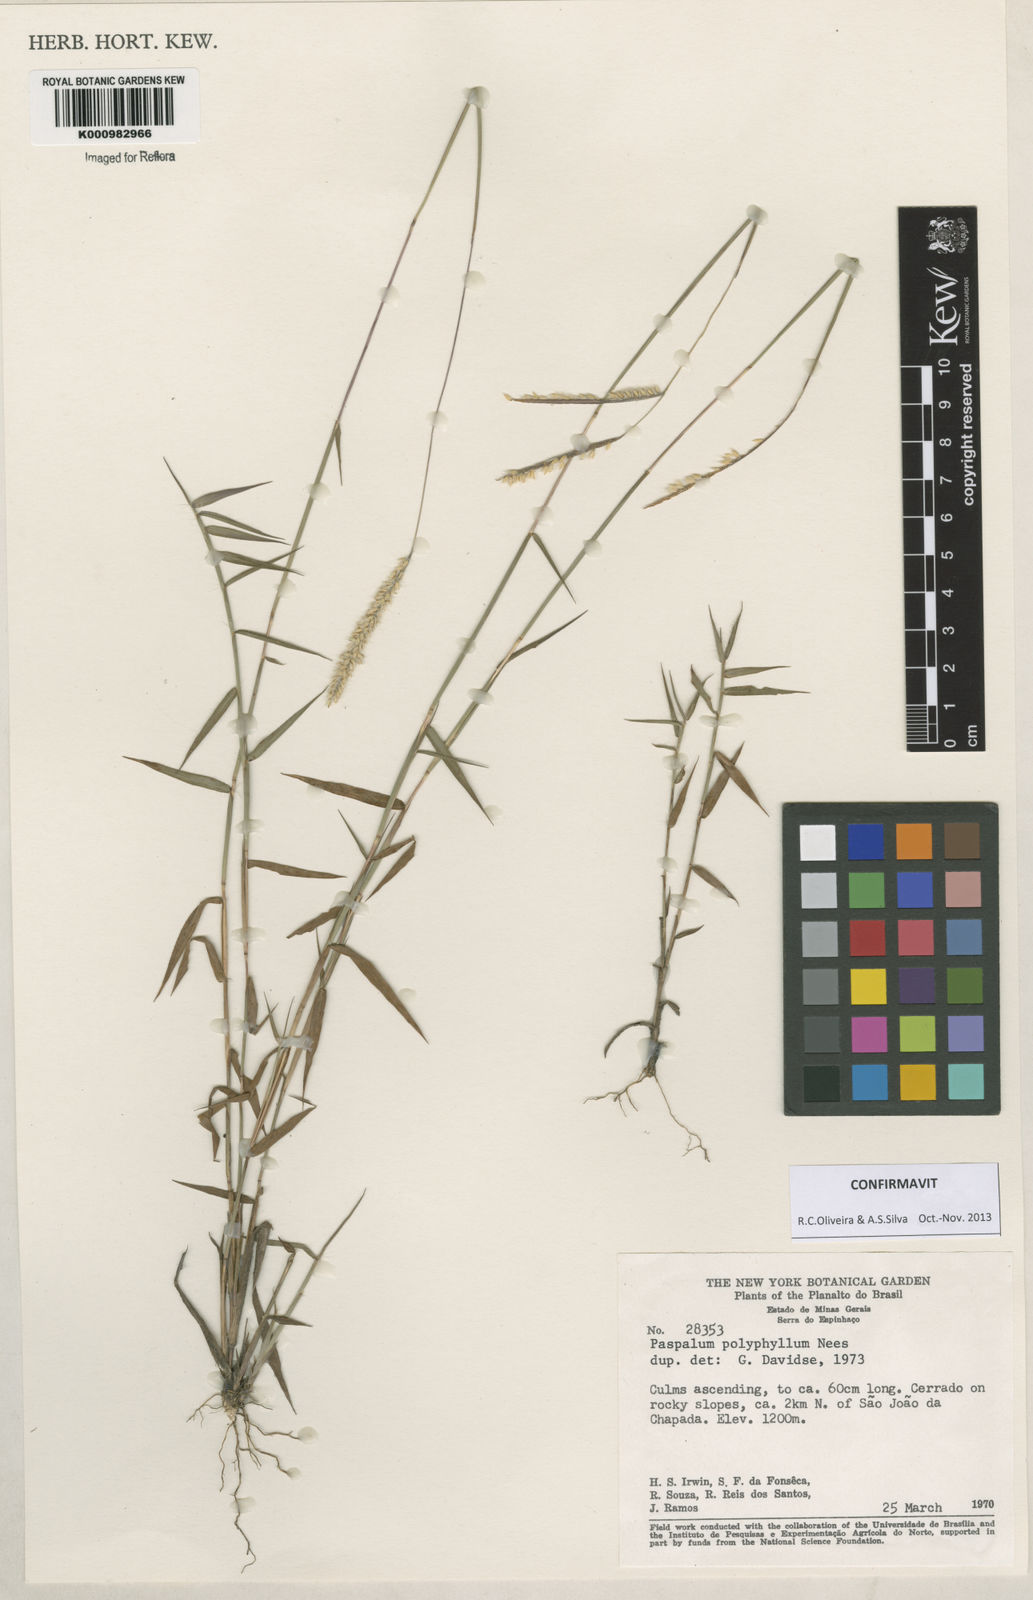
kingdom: Plantae
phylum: Tracheophyta
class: Liliopsida
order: Poales
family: Poaceae
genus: Paspalum
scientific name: Paspalum
